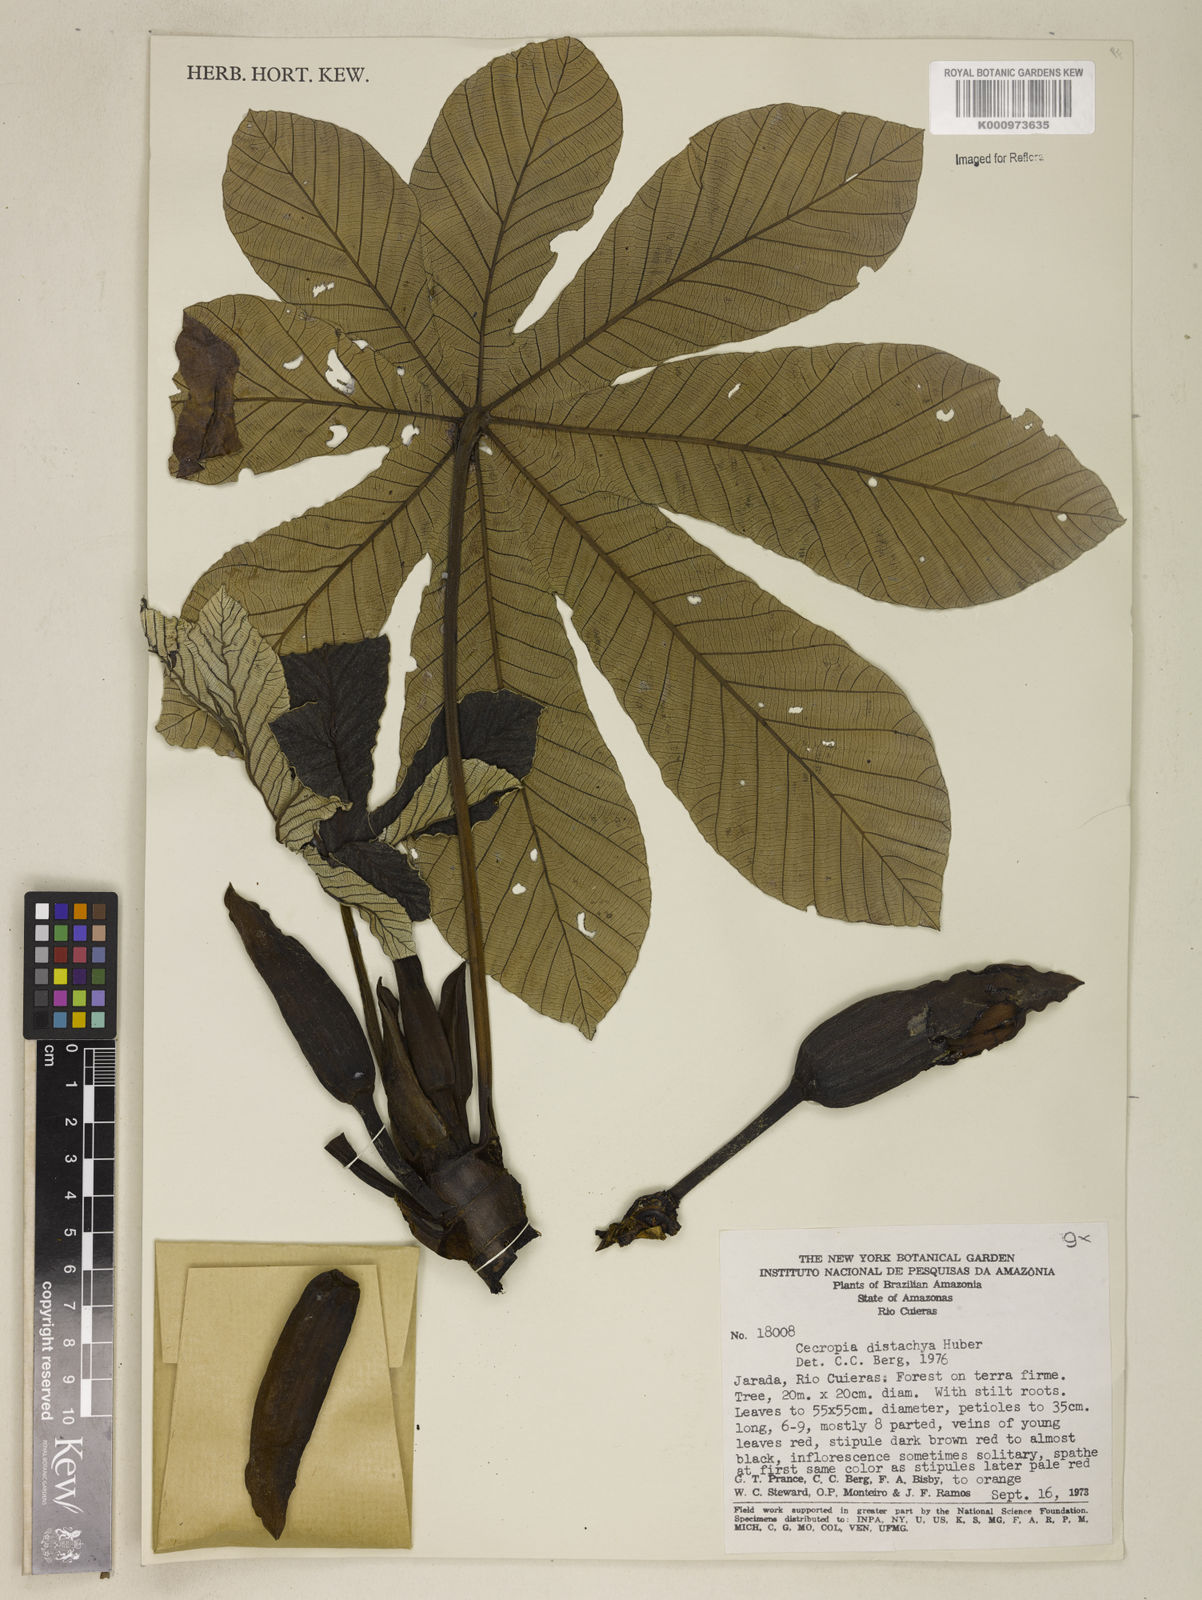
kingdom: Plantae
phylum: Tracheophyta
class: Magnoliopsida
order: Rosales
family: Urticaceae
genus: Cecropia
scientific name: Cecropia distachya
